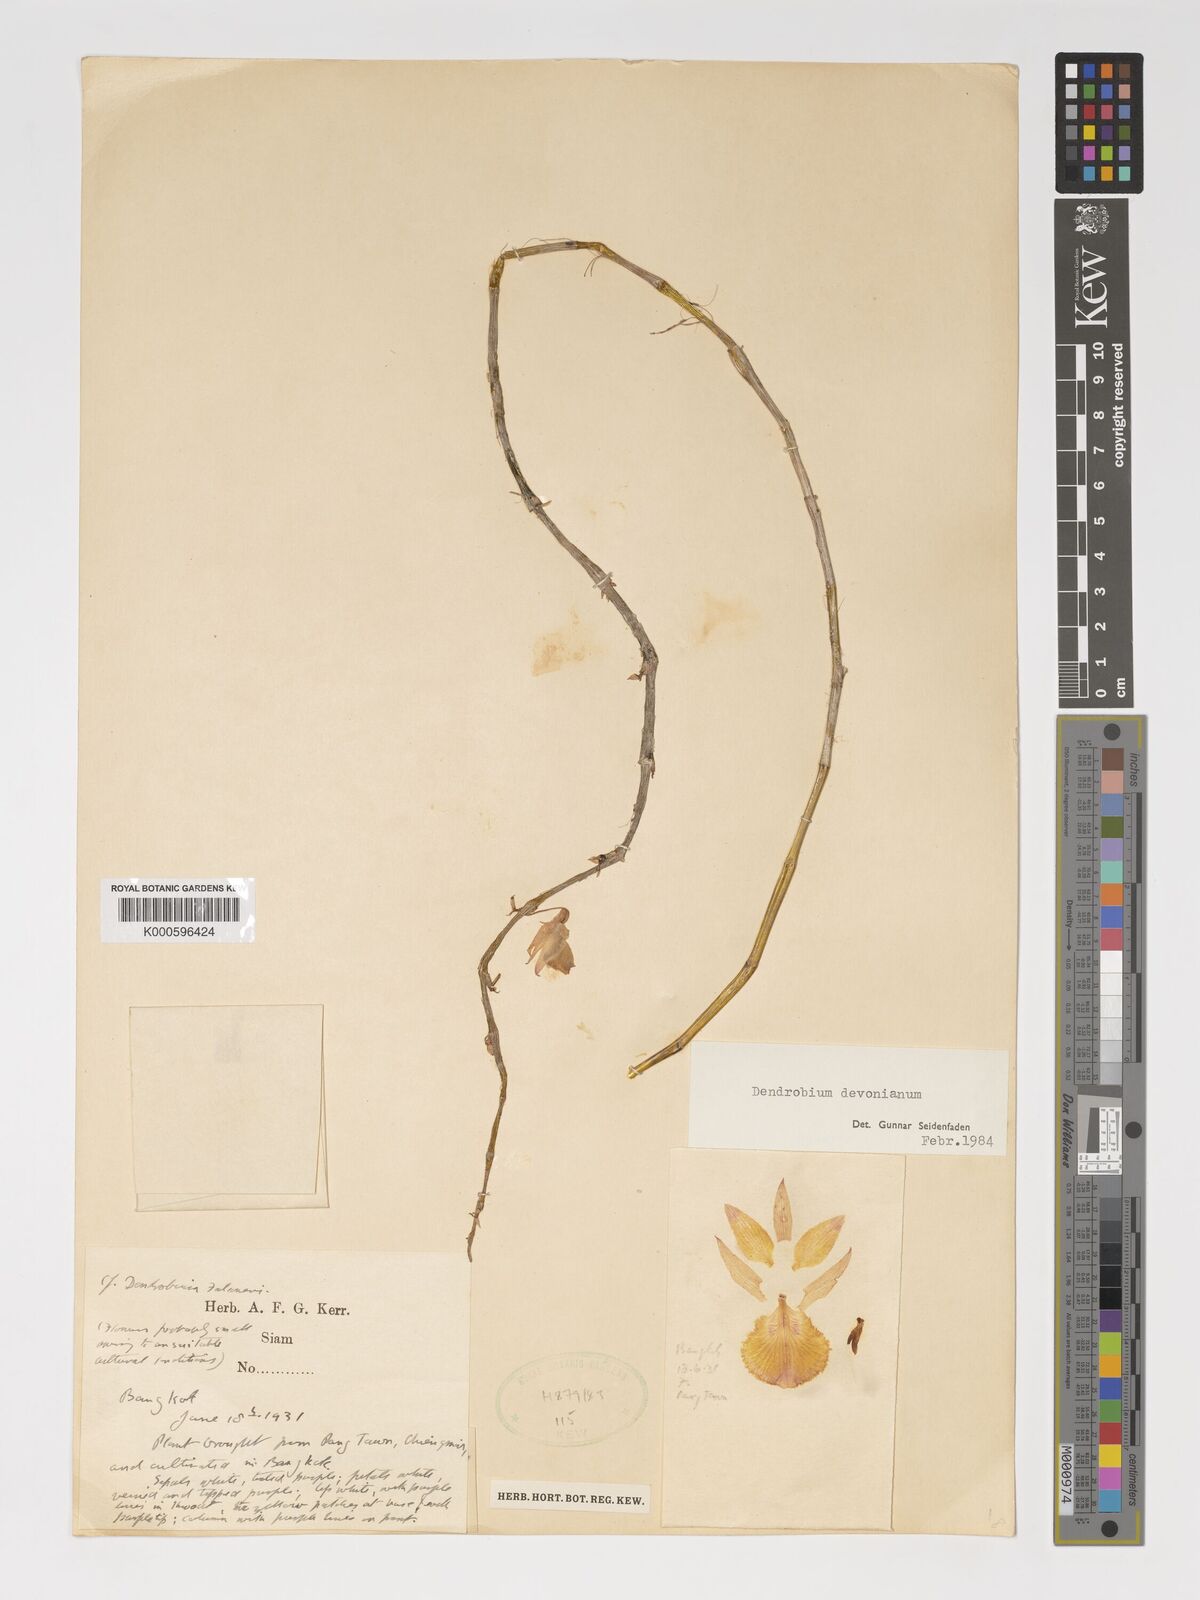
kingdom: Plantae
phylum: Tracheophyta
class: Liliopsida
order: Asparagales
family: Orchidaceae
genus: Dendrobium
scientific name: Dendrobium devonianum
